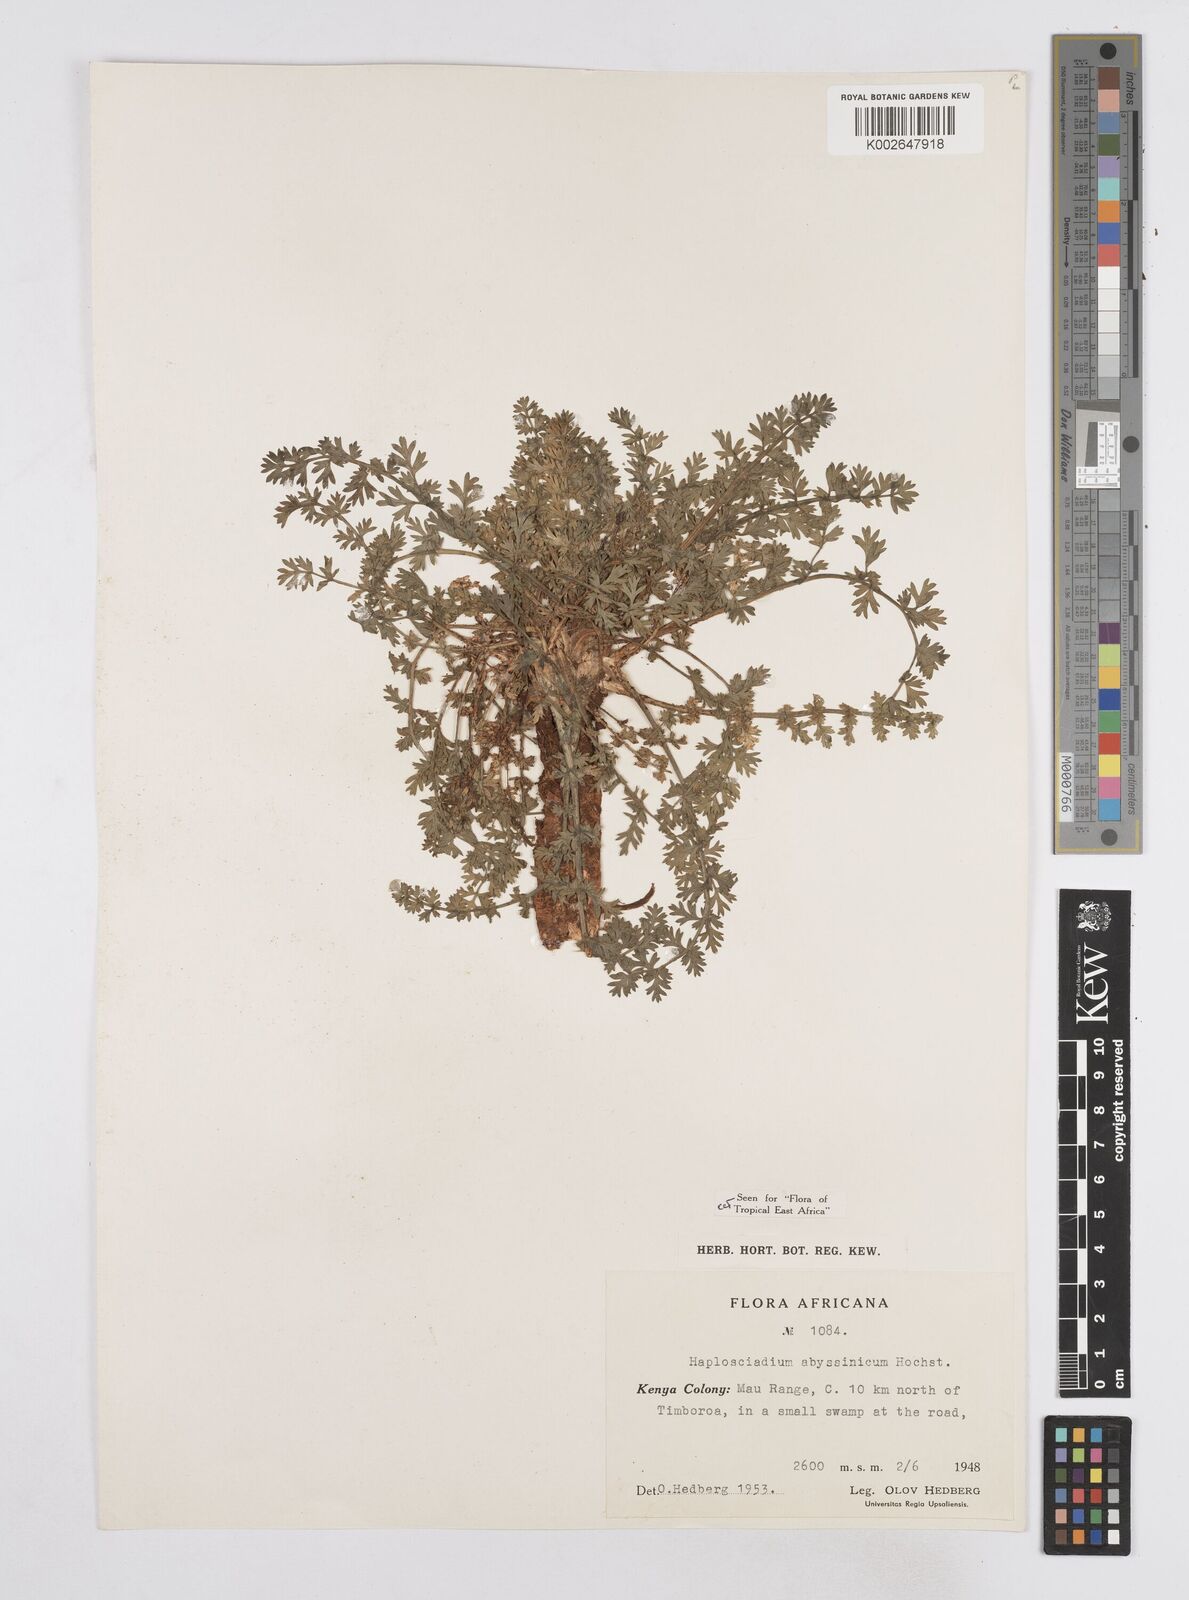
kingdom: Plantae
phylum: Tracheophyta
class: Magnoliopsida
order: Apiales
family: Apiaceae
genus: Haplosciadium
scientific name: Haplosciadium abyssinicum
